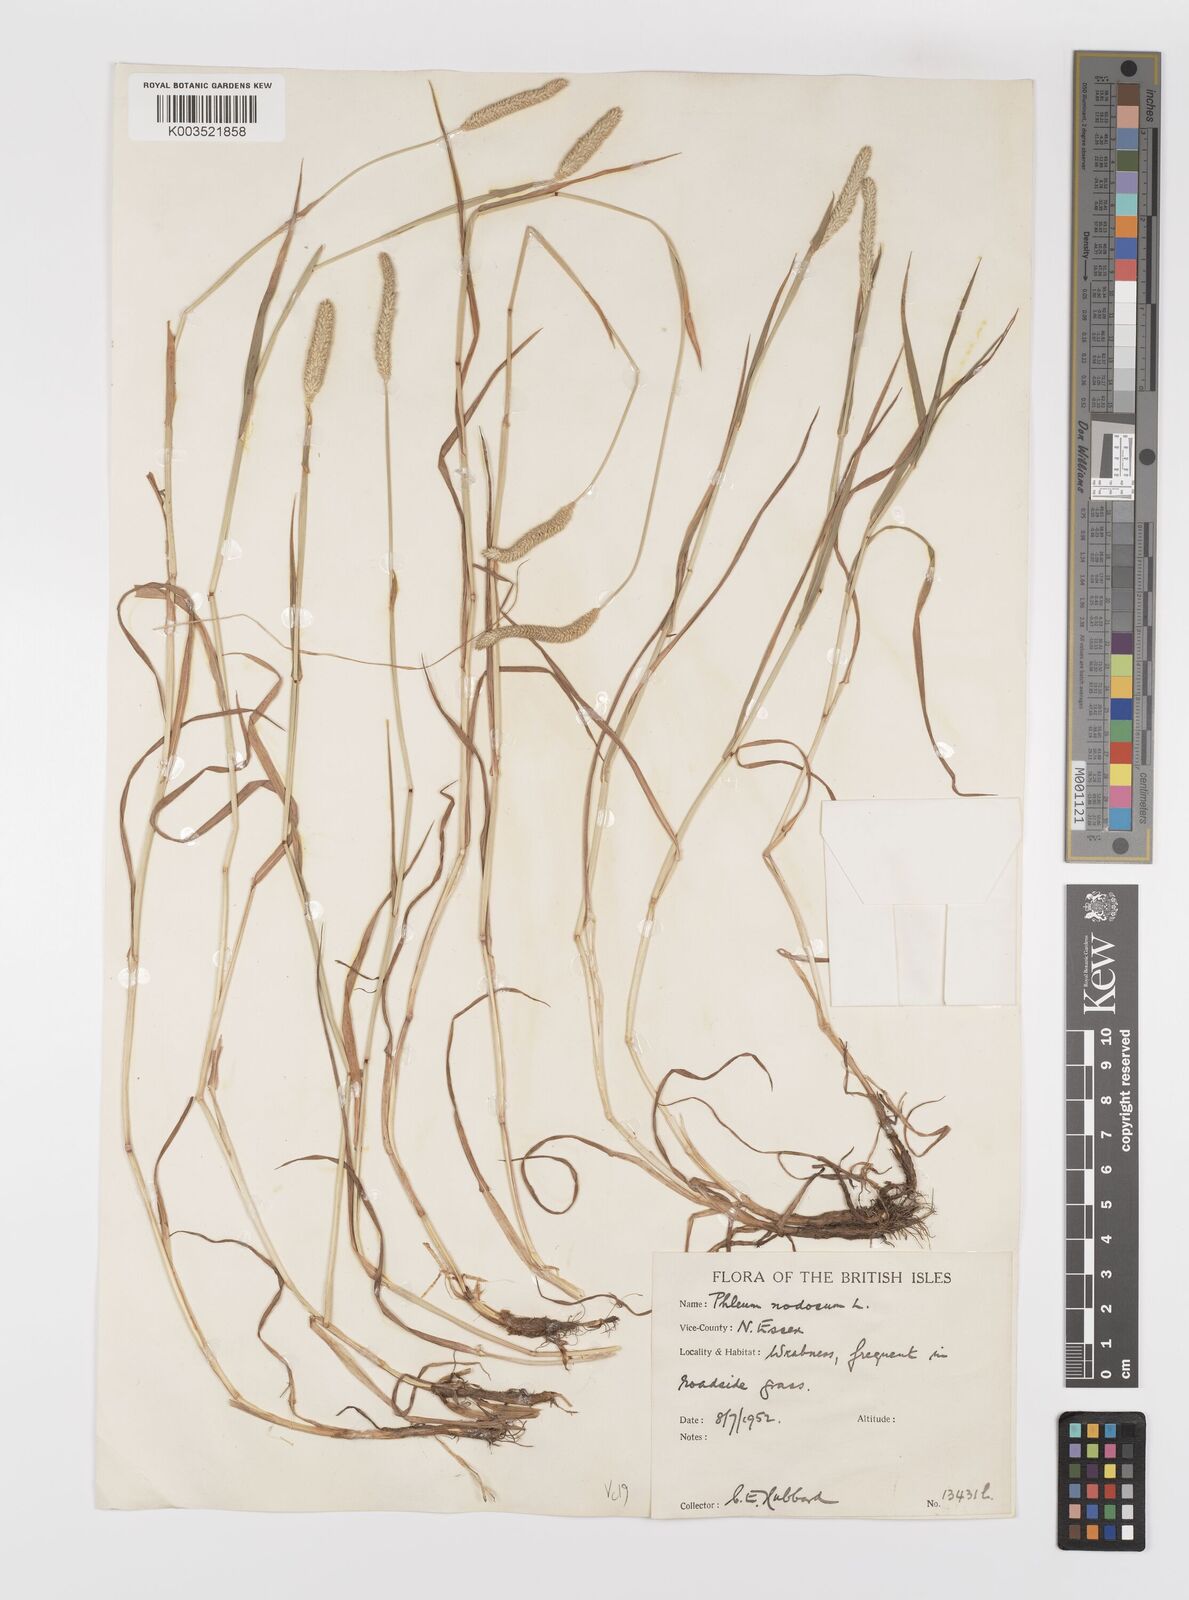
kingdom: Plantae
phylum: Tracheophyta
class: Liliopsida
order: Poales
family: Poaceae
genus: Phleum
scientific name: Phleum bertolonii
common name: Smaller cat's-tail
